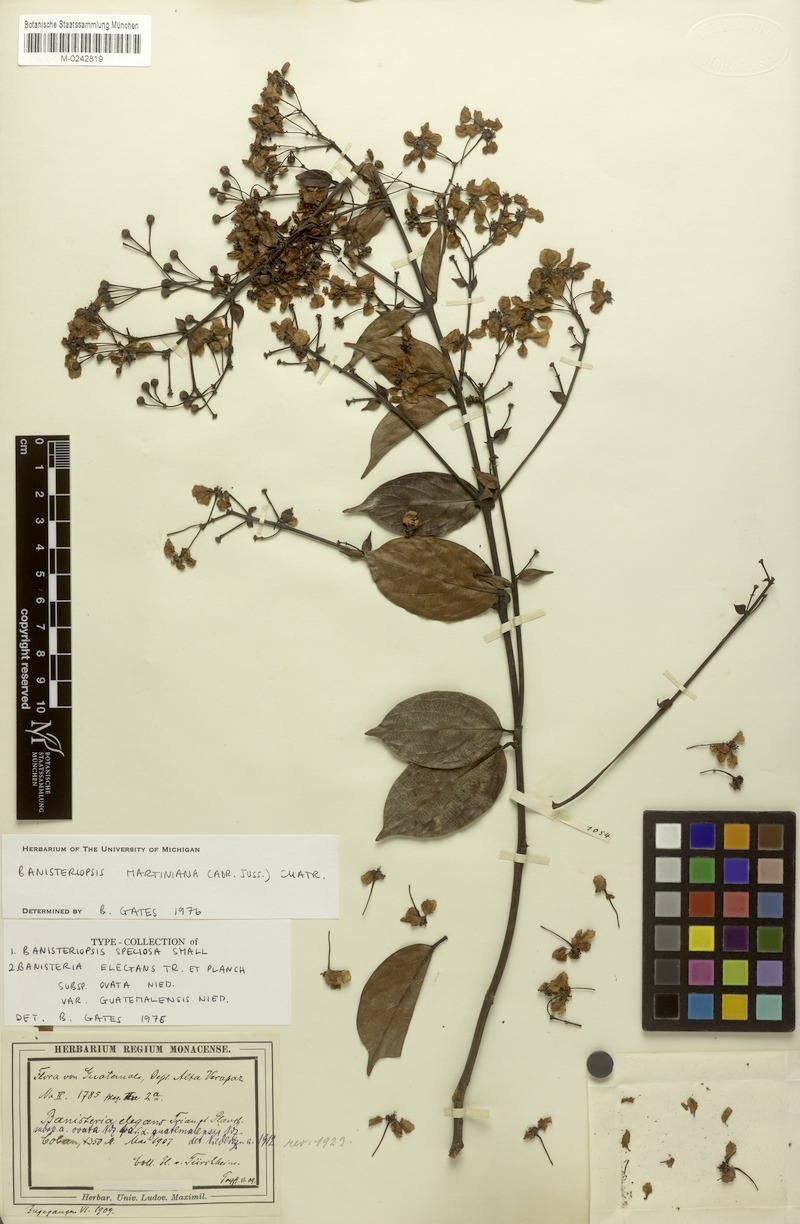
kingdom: Plantae
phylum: Tracheophyta
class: Magnoliopsida
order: Malpighiales
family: Malpighiaceae
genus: Banisteriopsis
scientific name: Banisteriopsis martiniana
